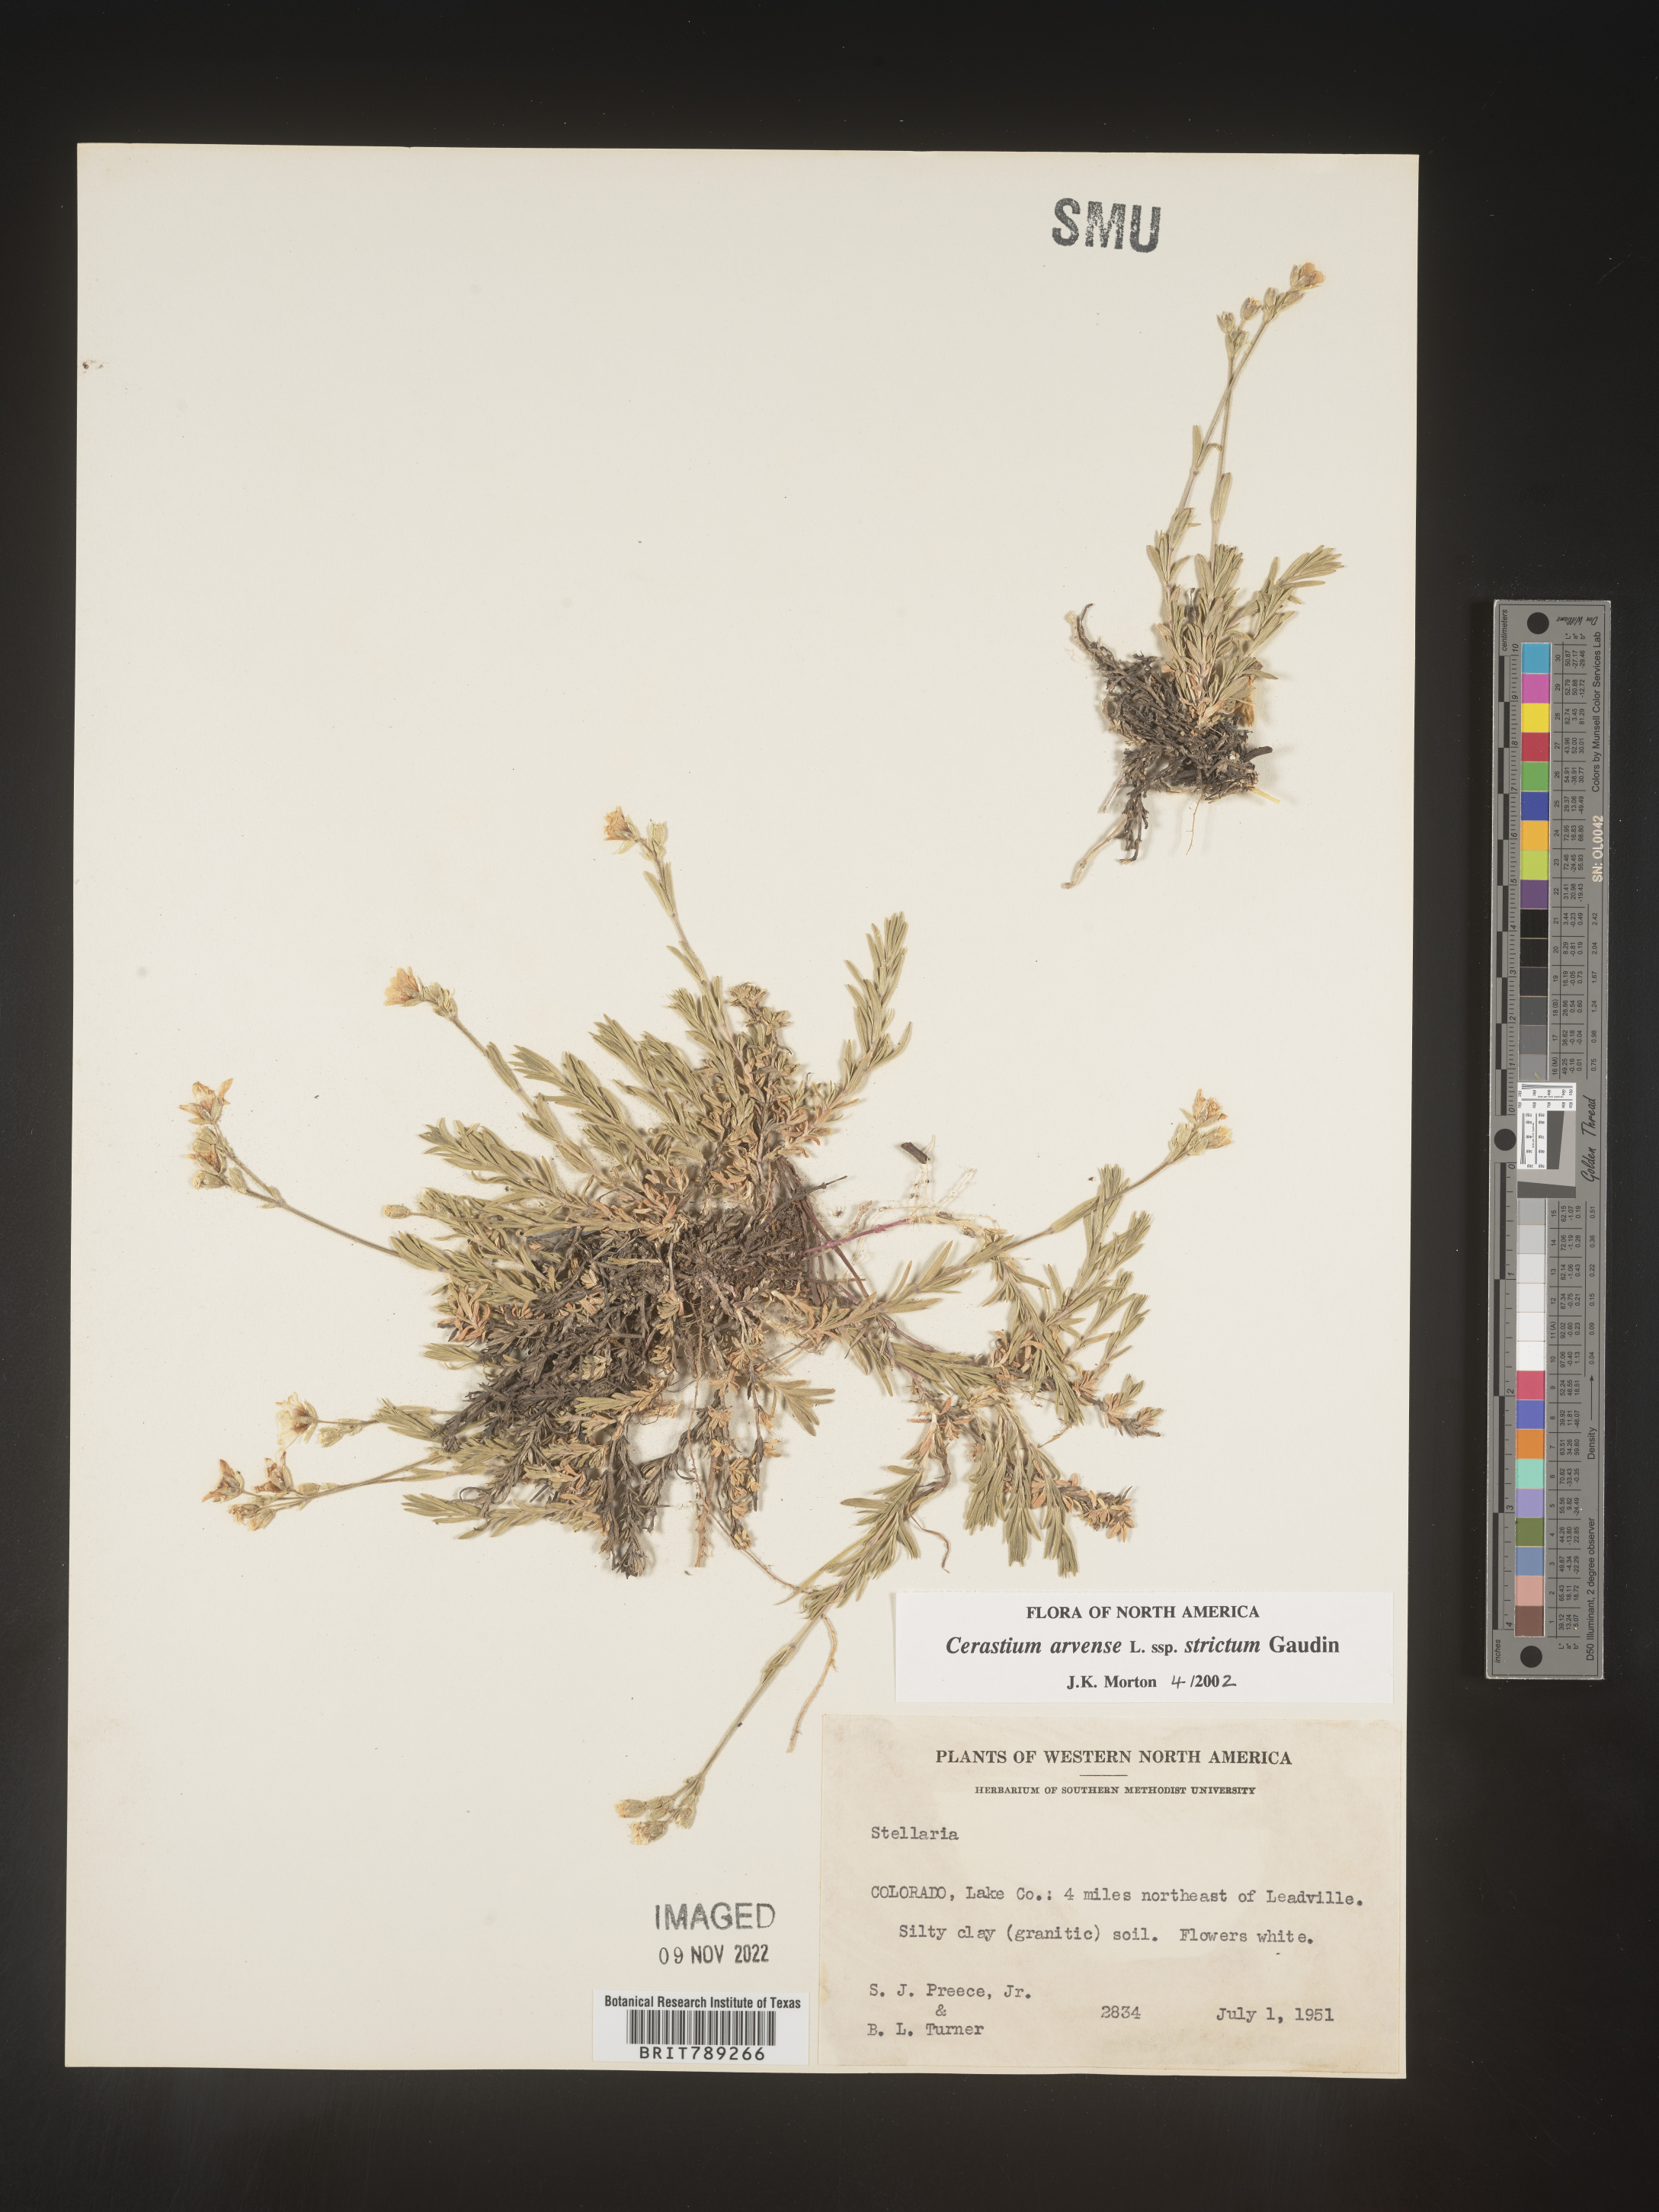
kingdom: Plantae
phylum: Tracheophyta
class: Magnoliopsida
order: Caryophyllales
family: Caryophyllaceae
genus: Cerastium
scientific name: Cerastium arvense
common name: Field mouse-ear
